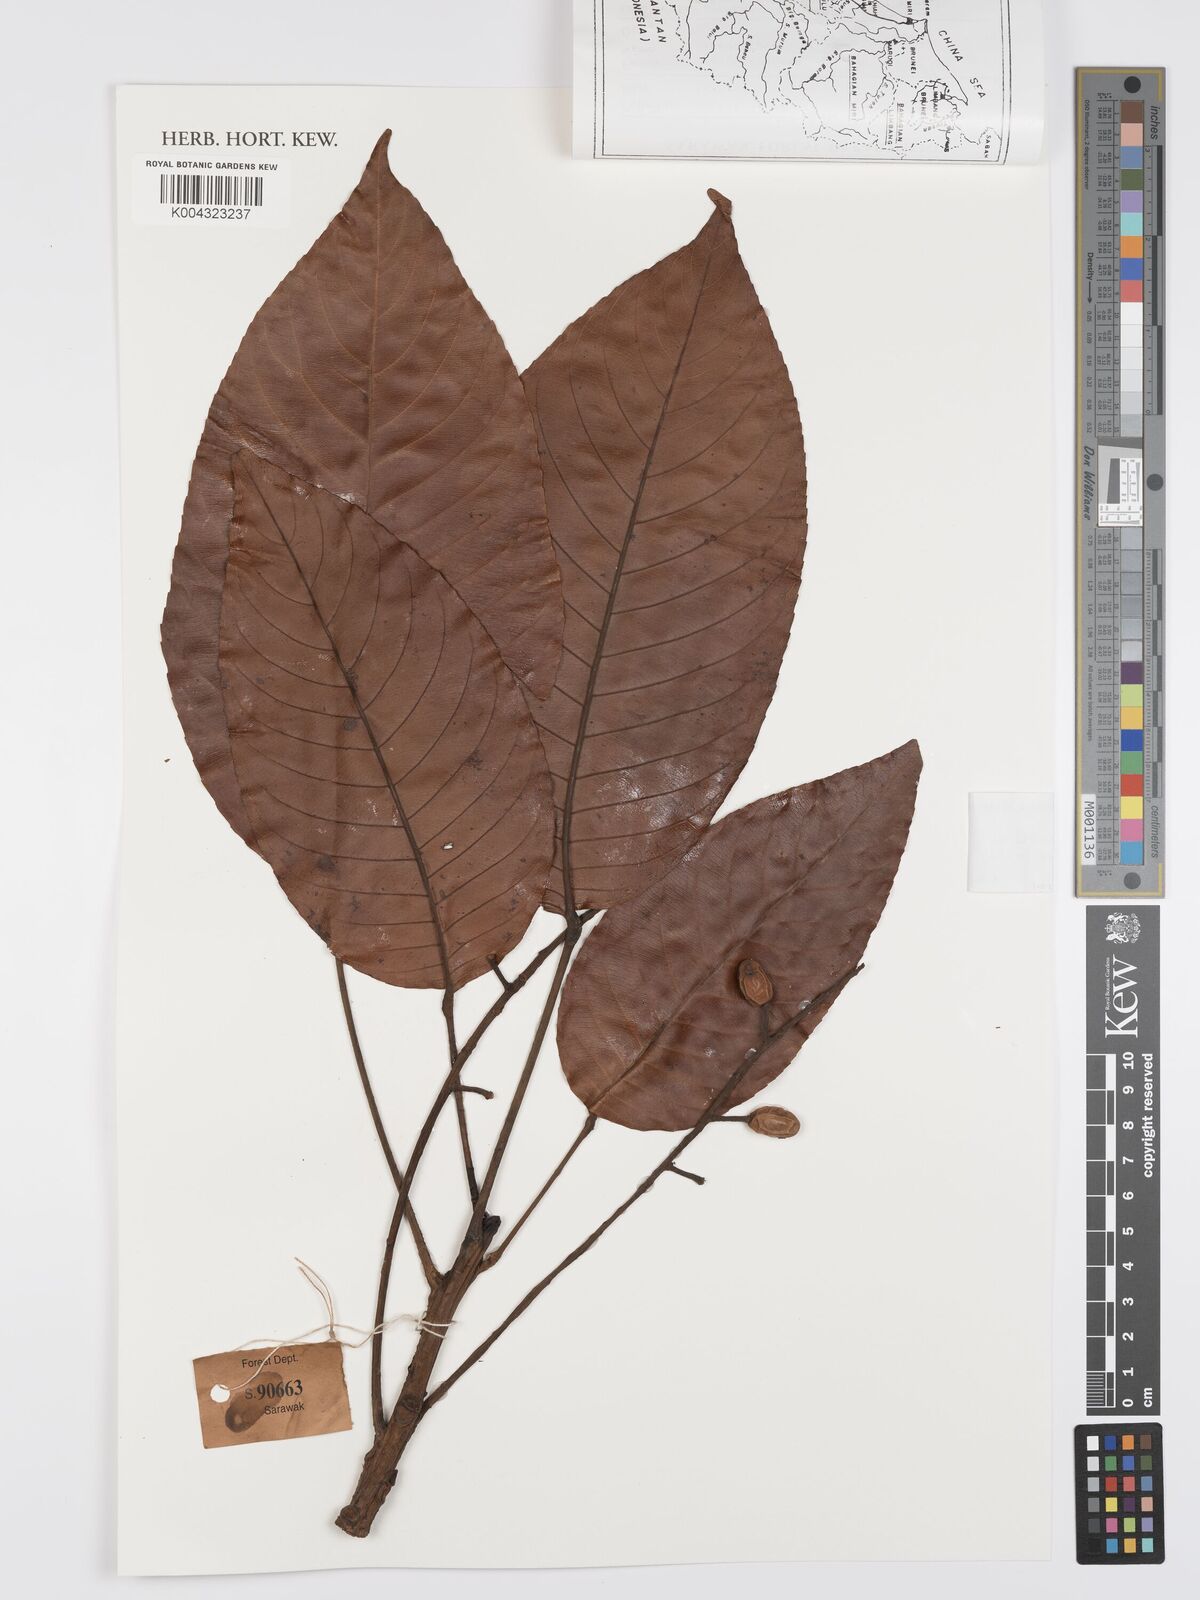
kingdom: Plantae
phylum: Tracheophyta
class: Magnoliopsida
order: Oxalidales
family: Elaeocarpaceae
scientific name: Elaeocarpaceae
